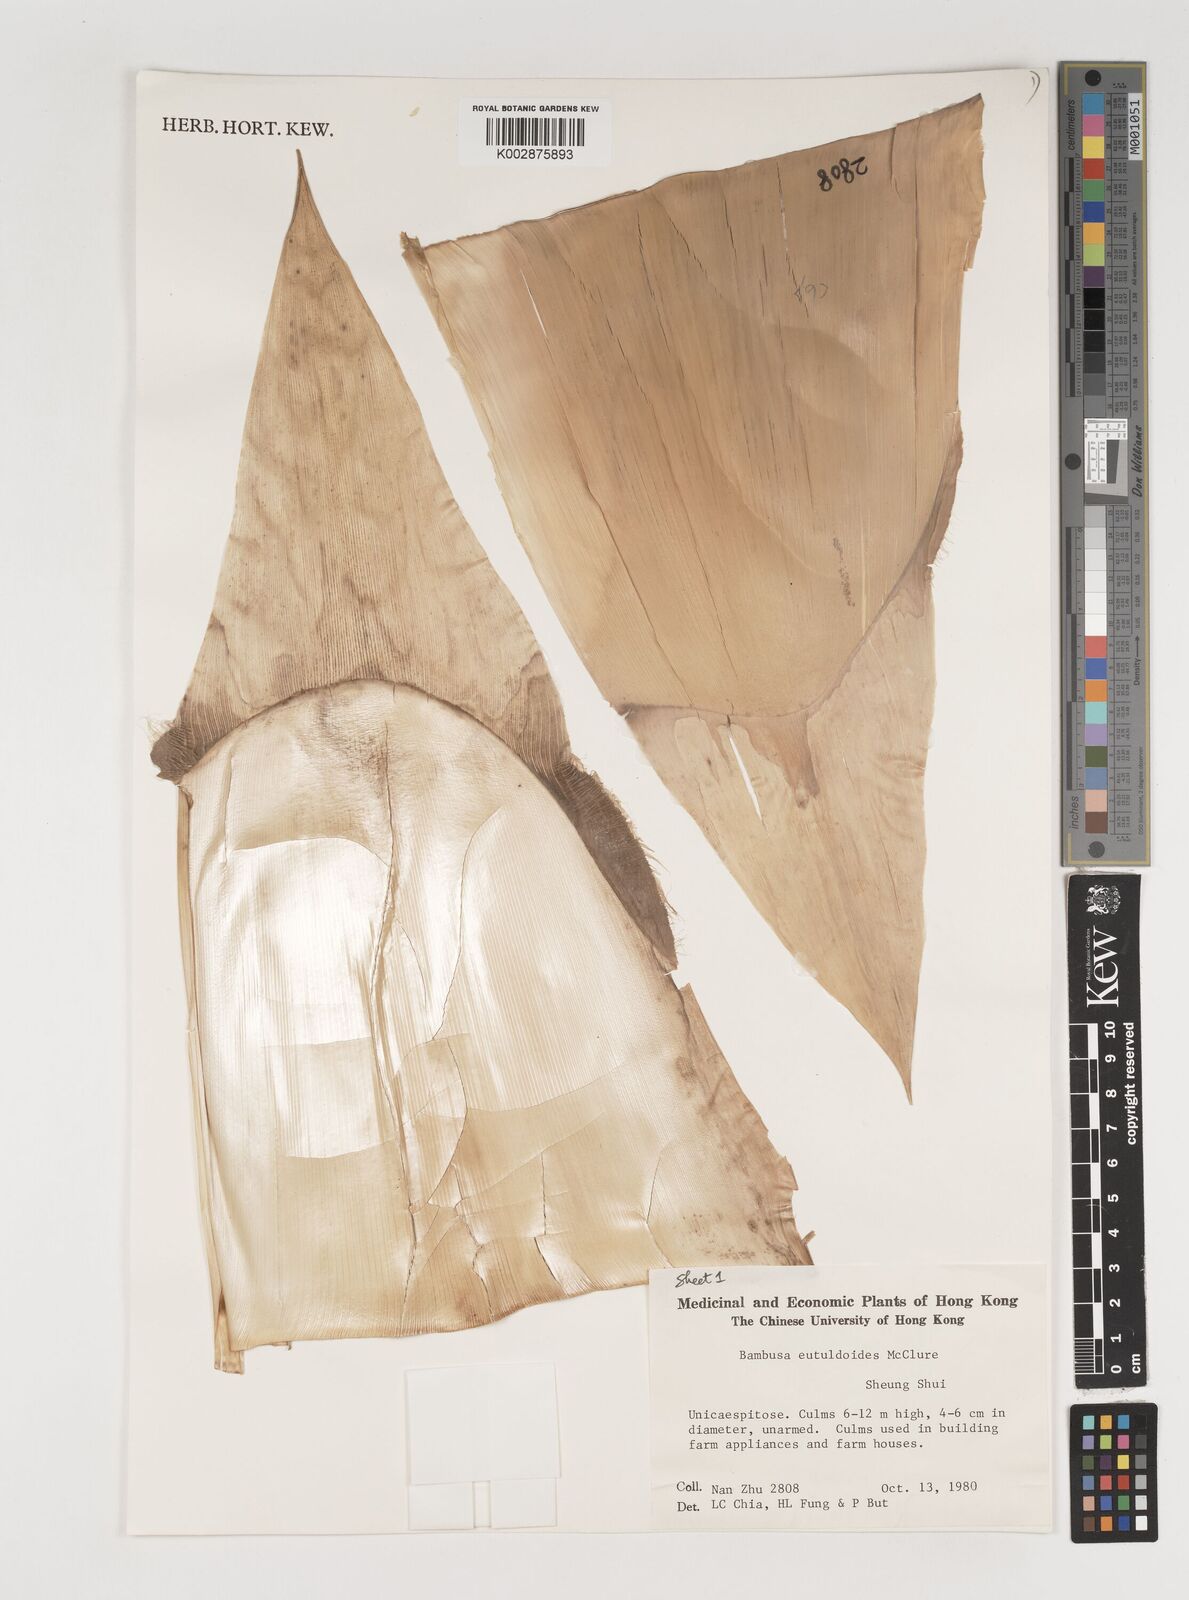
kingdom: Plantae
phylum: Tracheophyta
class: Liliopsida
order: Poales
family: Poaceae
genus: Bambusa
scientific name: Bambusa eutuldoides
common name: Dai ngan bamboo
